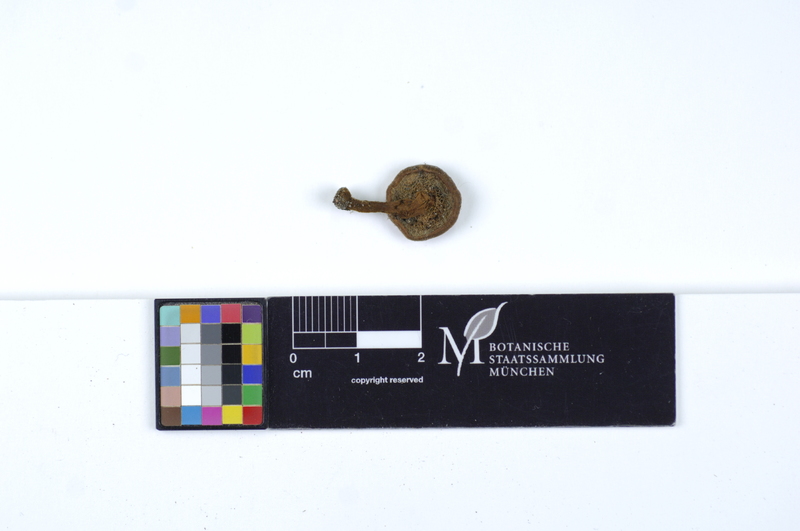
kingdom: Fungi
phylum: Basidiomycota
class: Agaricomycetes
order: Hymenochaetales
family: Hymenochaetaceae
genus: Coltricia
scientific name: Coltricia cinnamomea
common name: Shiny cinnamon polypore
